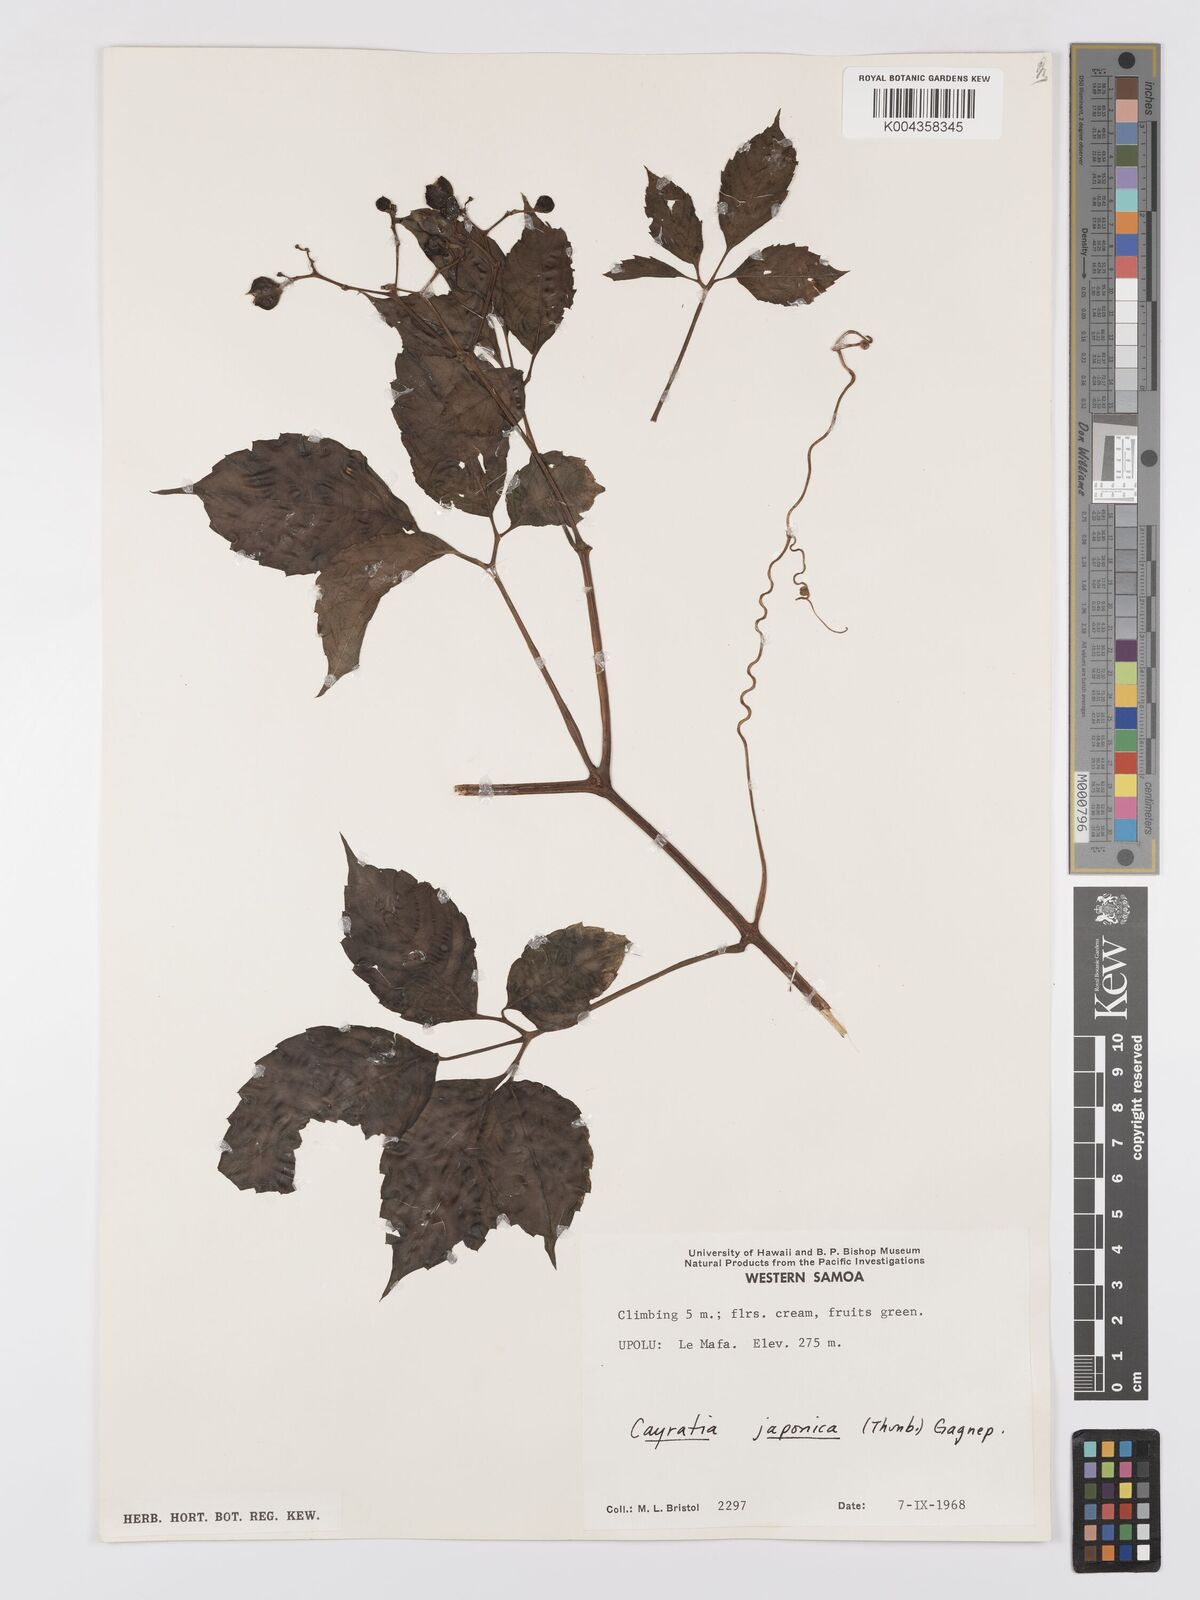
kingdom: Plantae
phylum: Tracheophyta
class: Magnoliopsida
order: Vitales
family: Vitaceae
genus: Cayratia
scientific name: Cayratia
